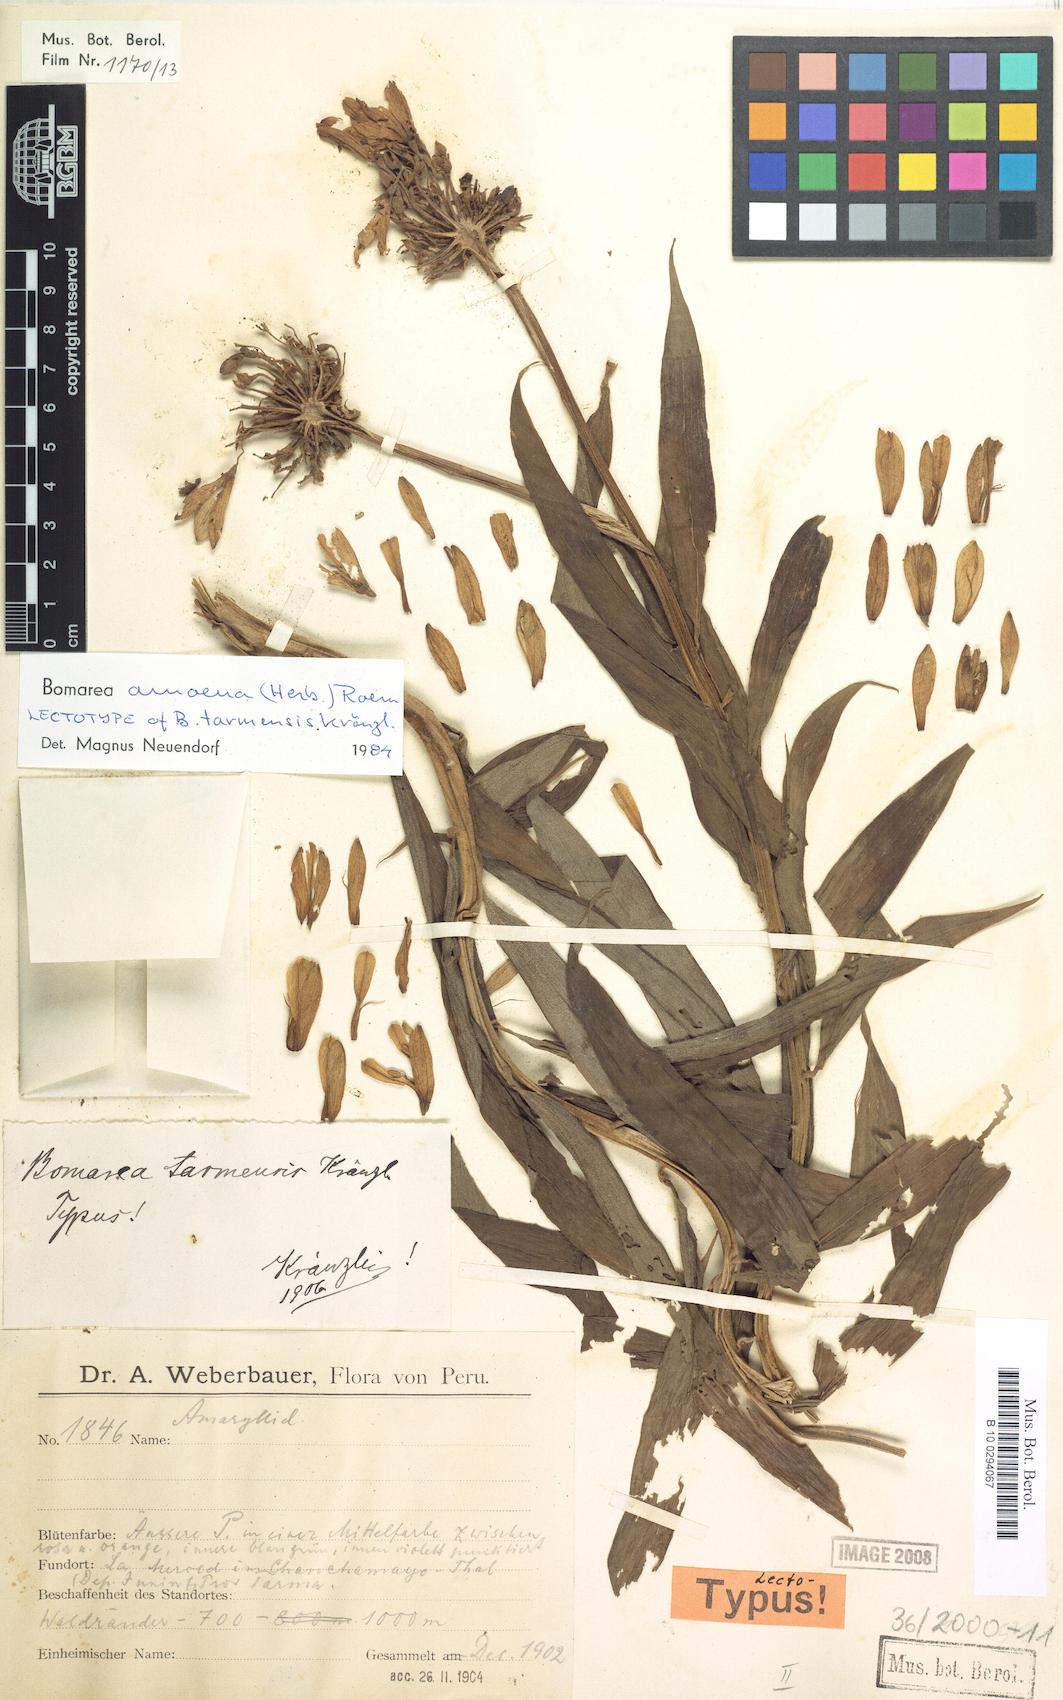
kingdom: Plantae
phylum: Tracheophyta
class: Liliopsida
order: Liliales
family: Alstroemeriaceae
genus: Bomarea
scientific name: Bomarea ovata
